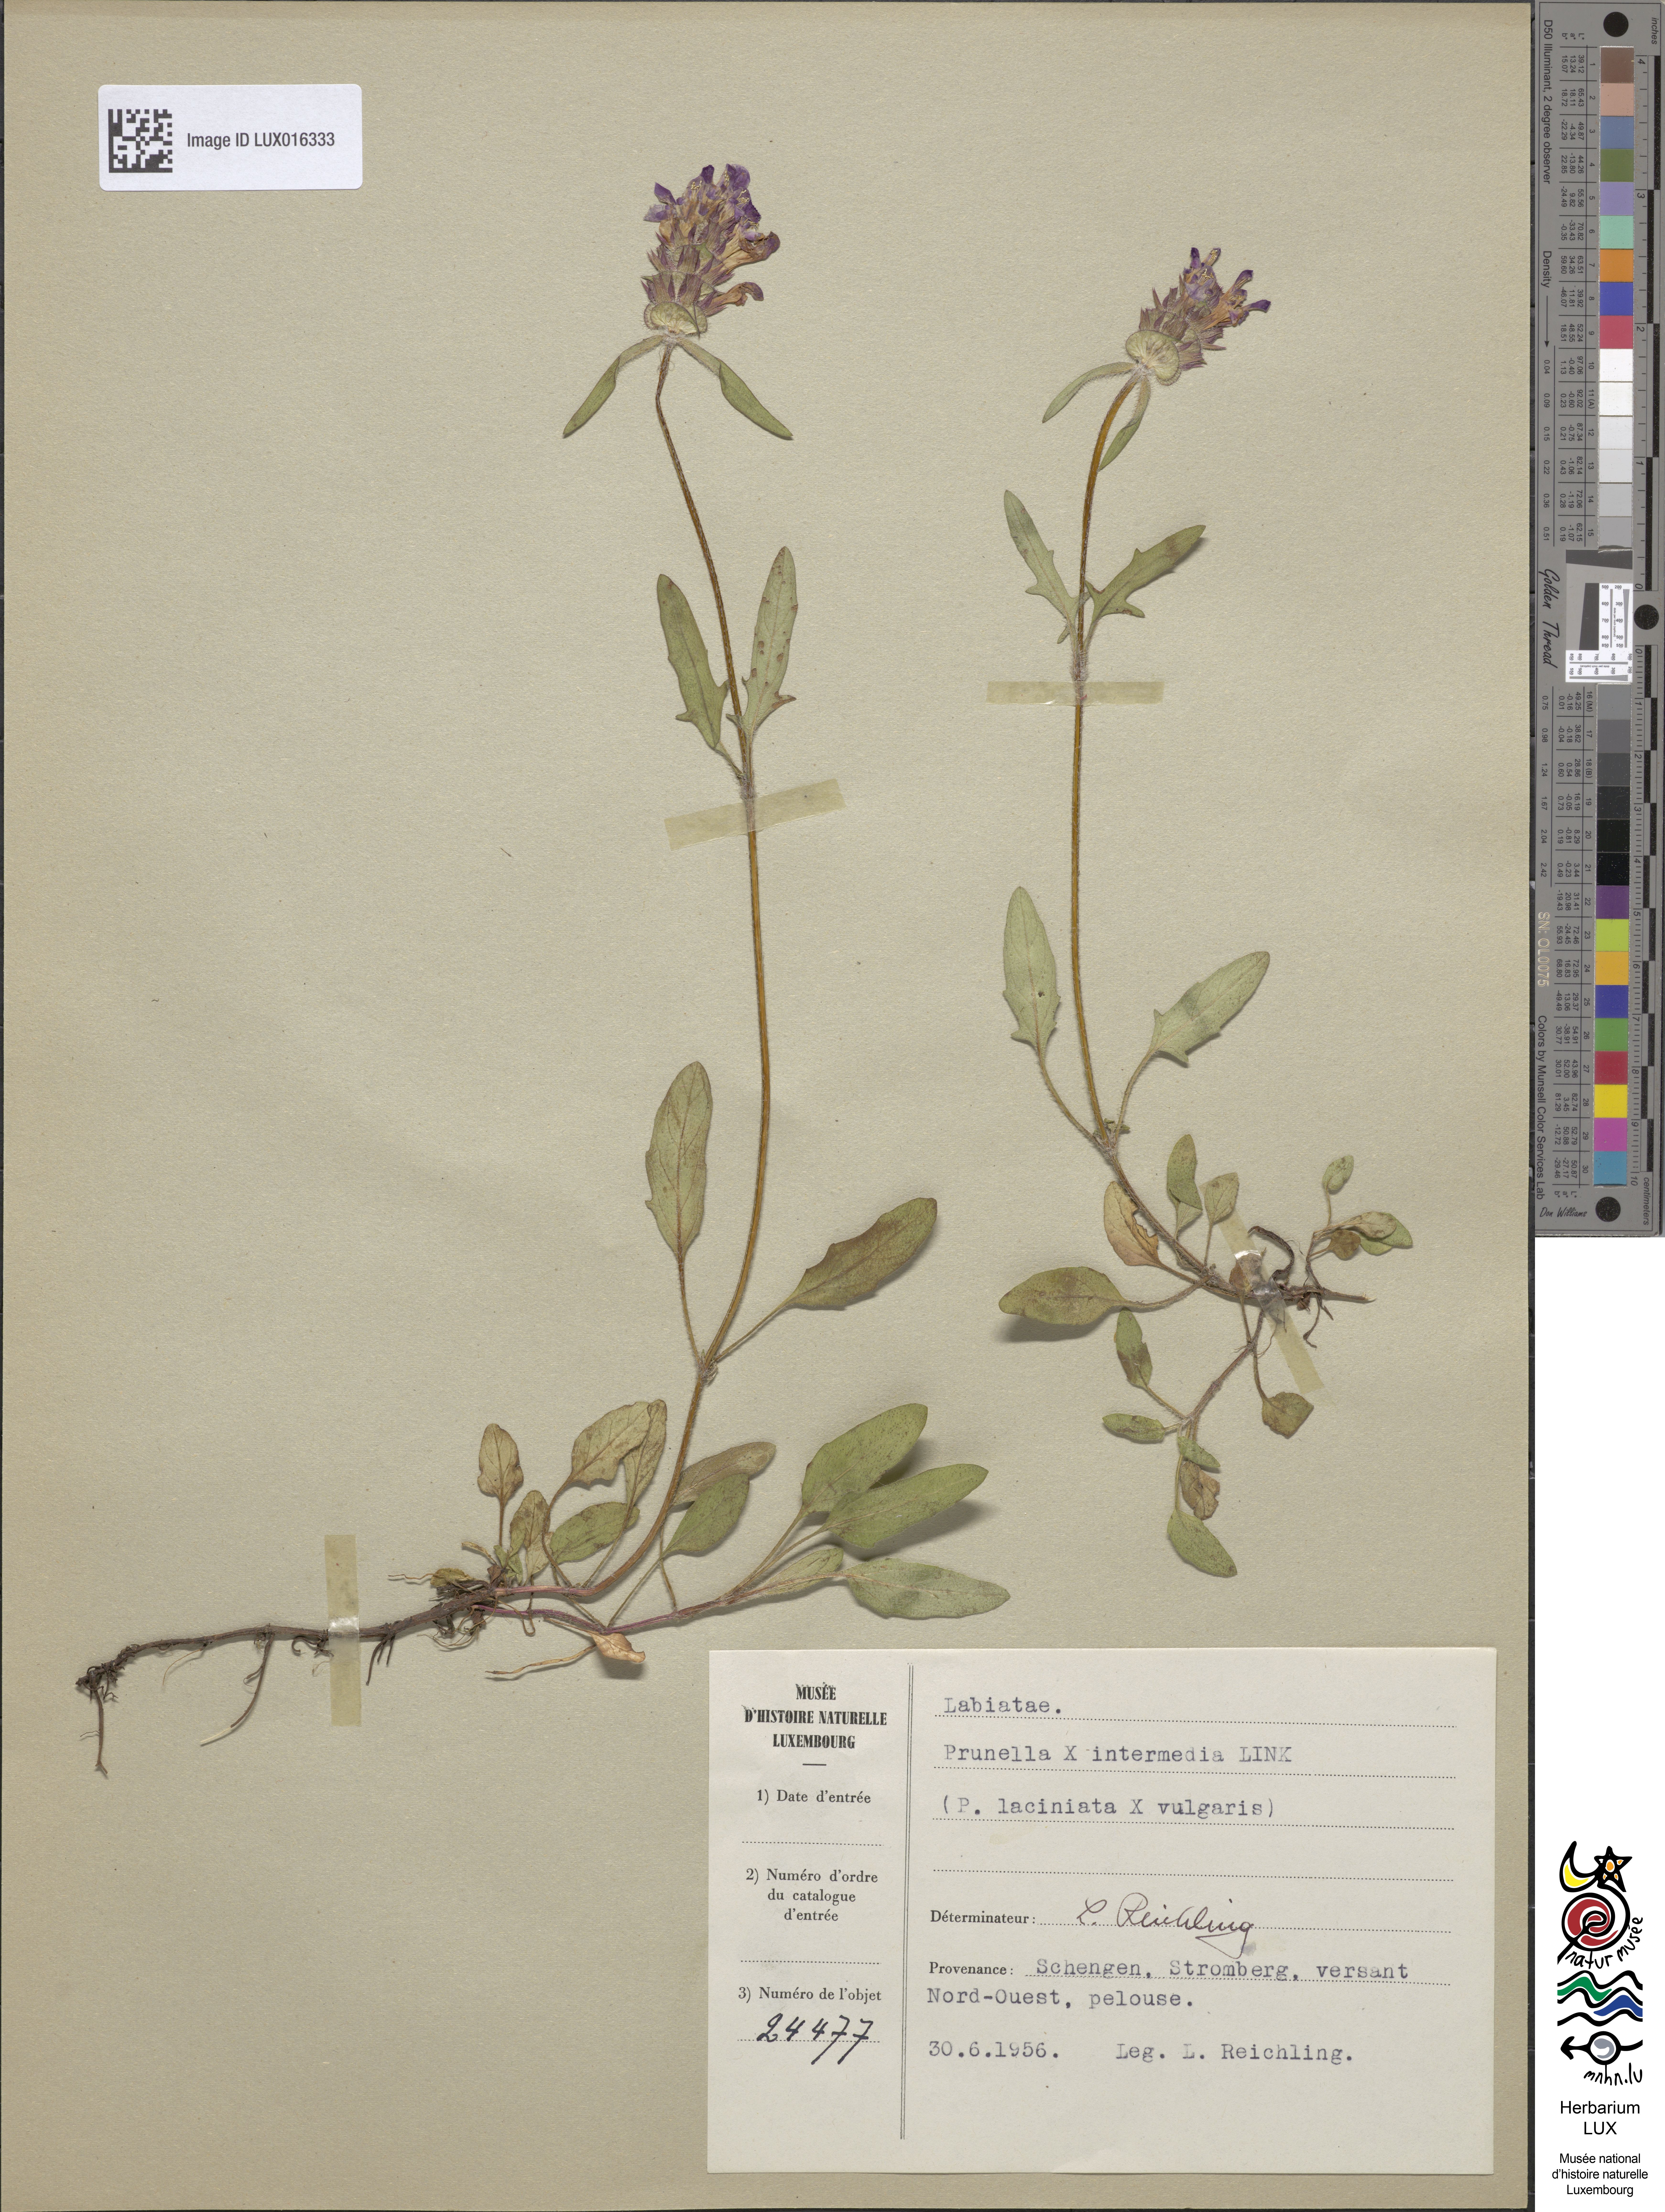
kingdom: Animalia
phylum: Chordata
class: Aves
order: Passeriformes
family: Prunellidae
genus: Prunella
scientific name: Prunella
